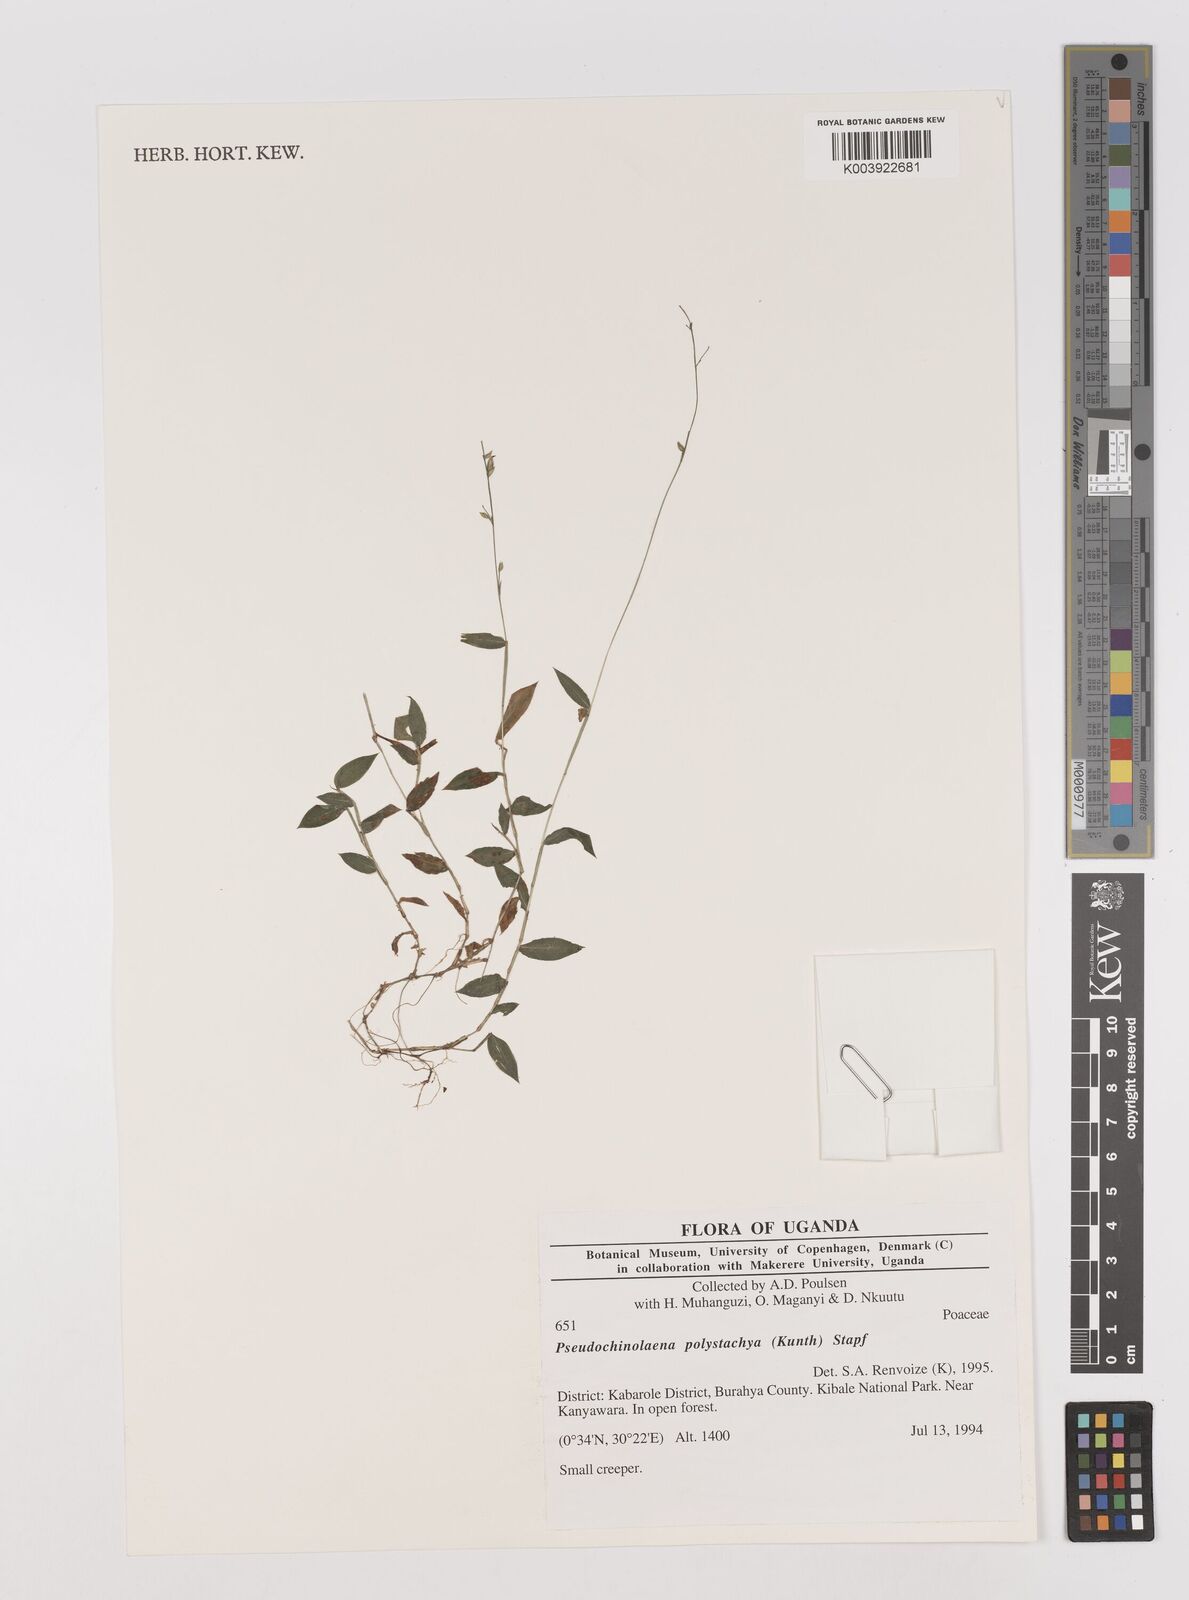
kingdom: Plantae
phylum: Tracheophyta
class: Liliopsida
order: Poales
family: Poaceae
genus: Pseudechinolaena
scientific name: Pseudechinolaena polystachya
